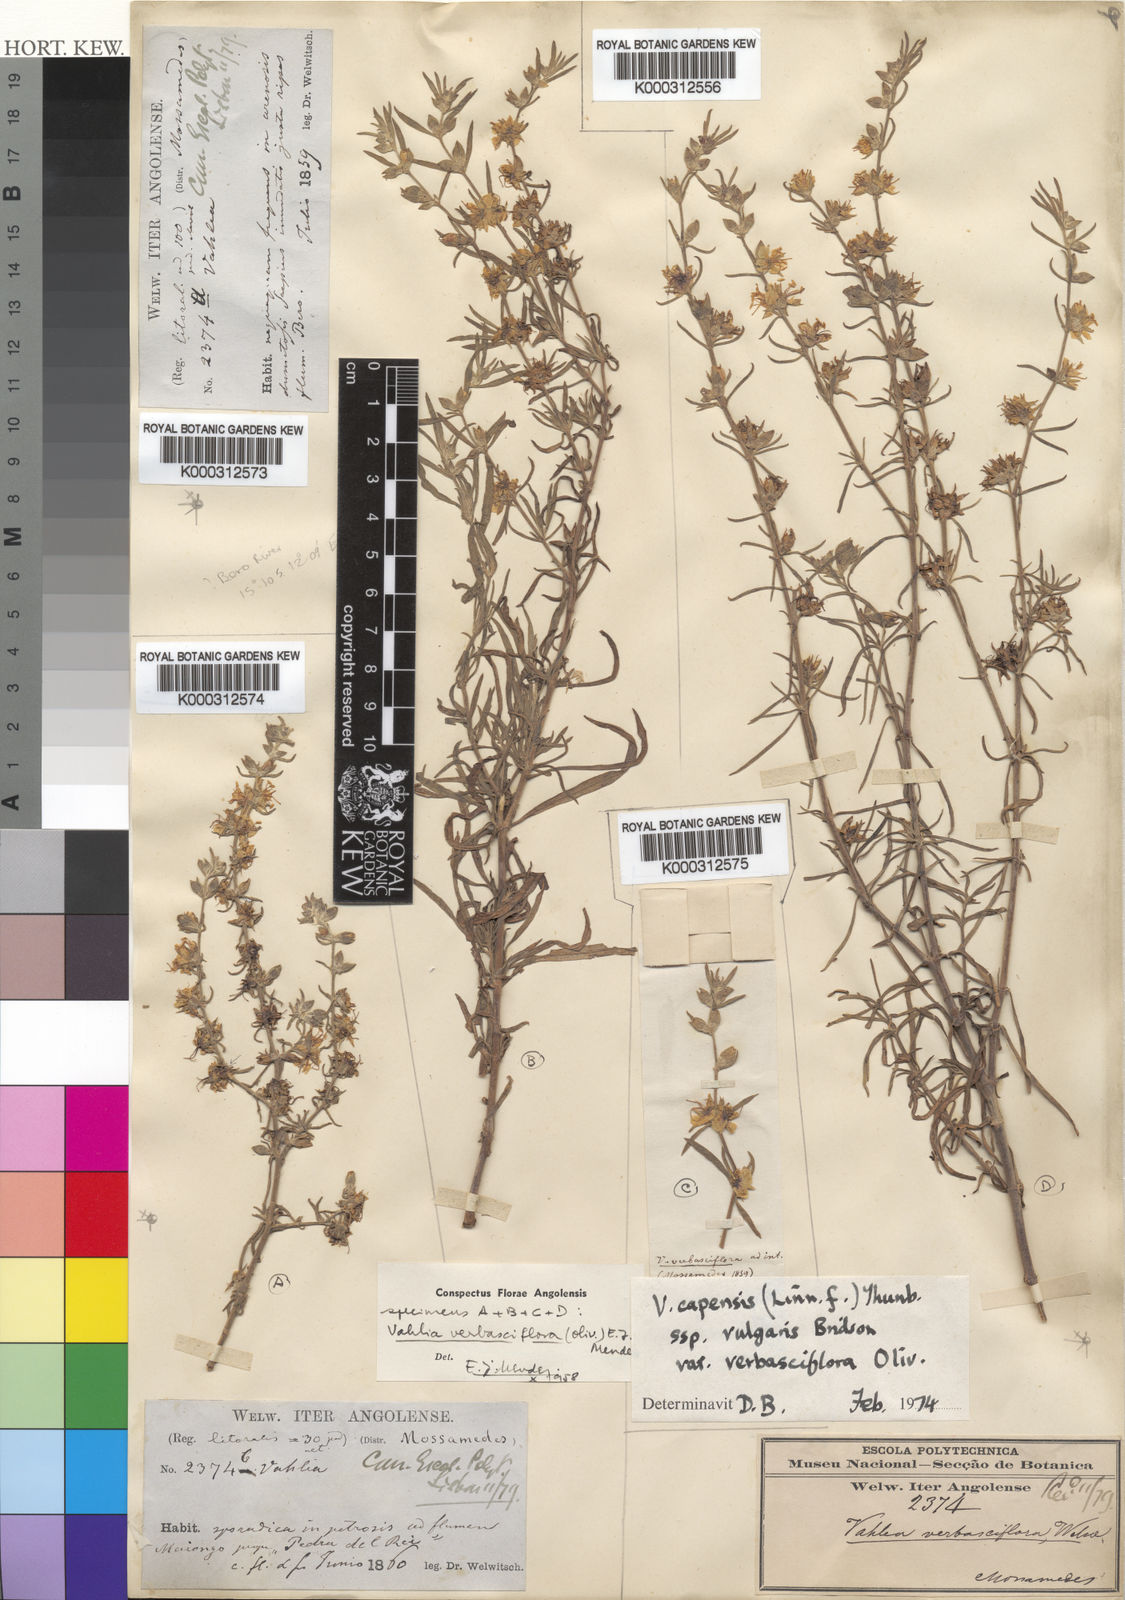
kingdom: Plantae
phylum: Tracheophyta
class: Magnoliopsida
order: Vahliales
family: Vahliaceae
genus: Vahlia
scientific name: Vahlia capensis
